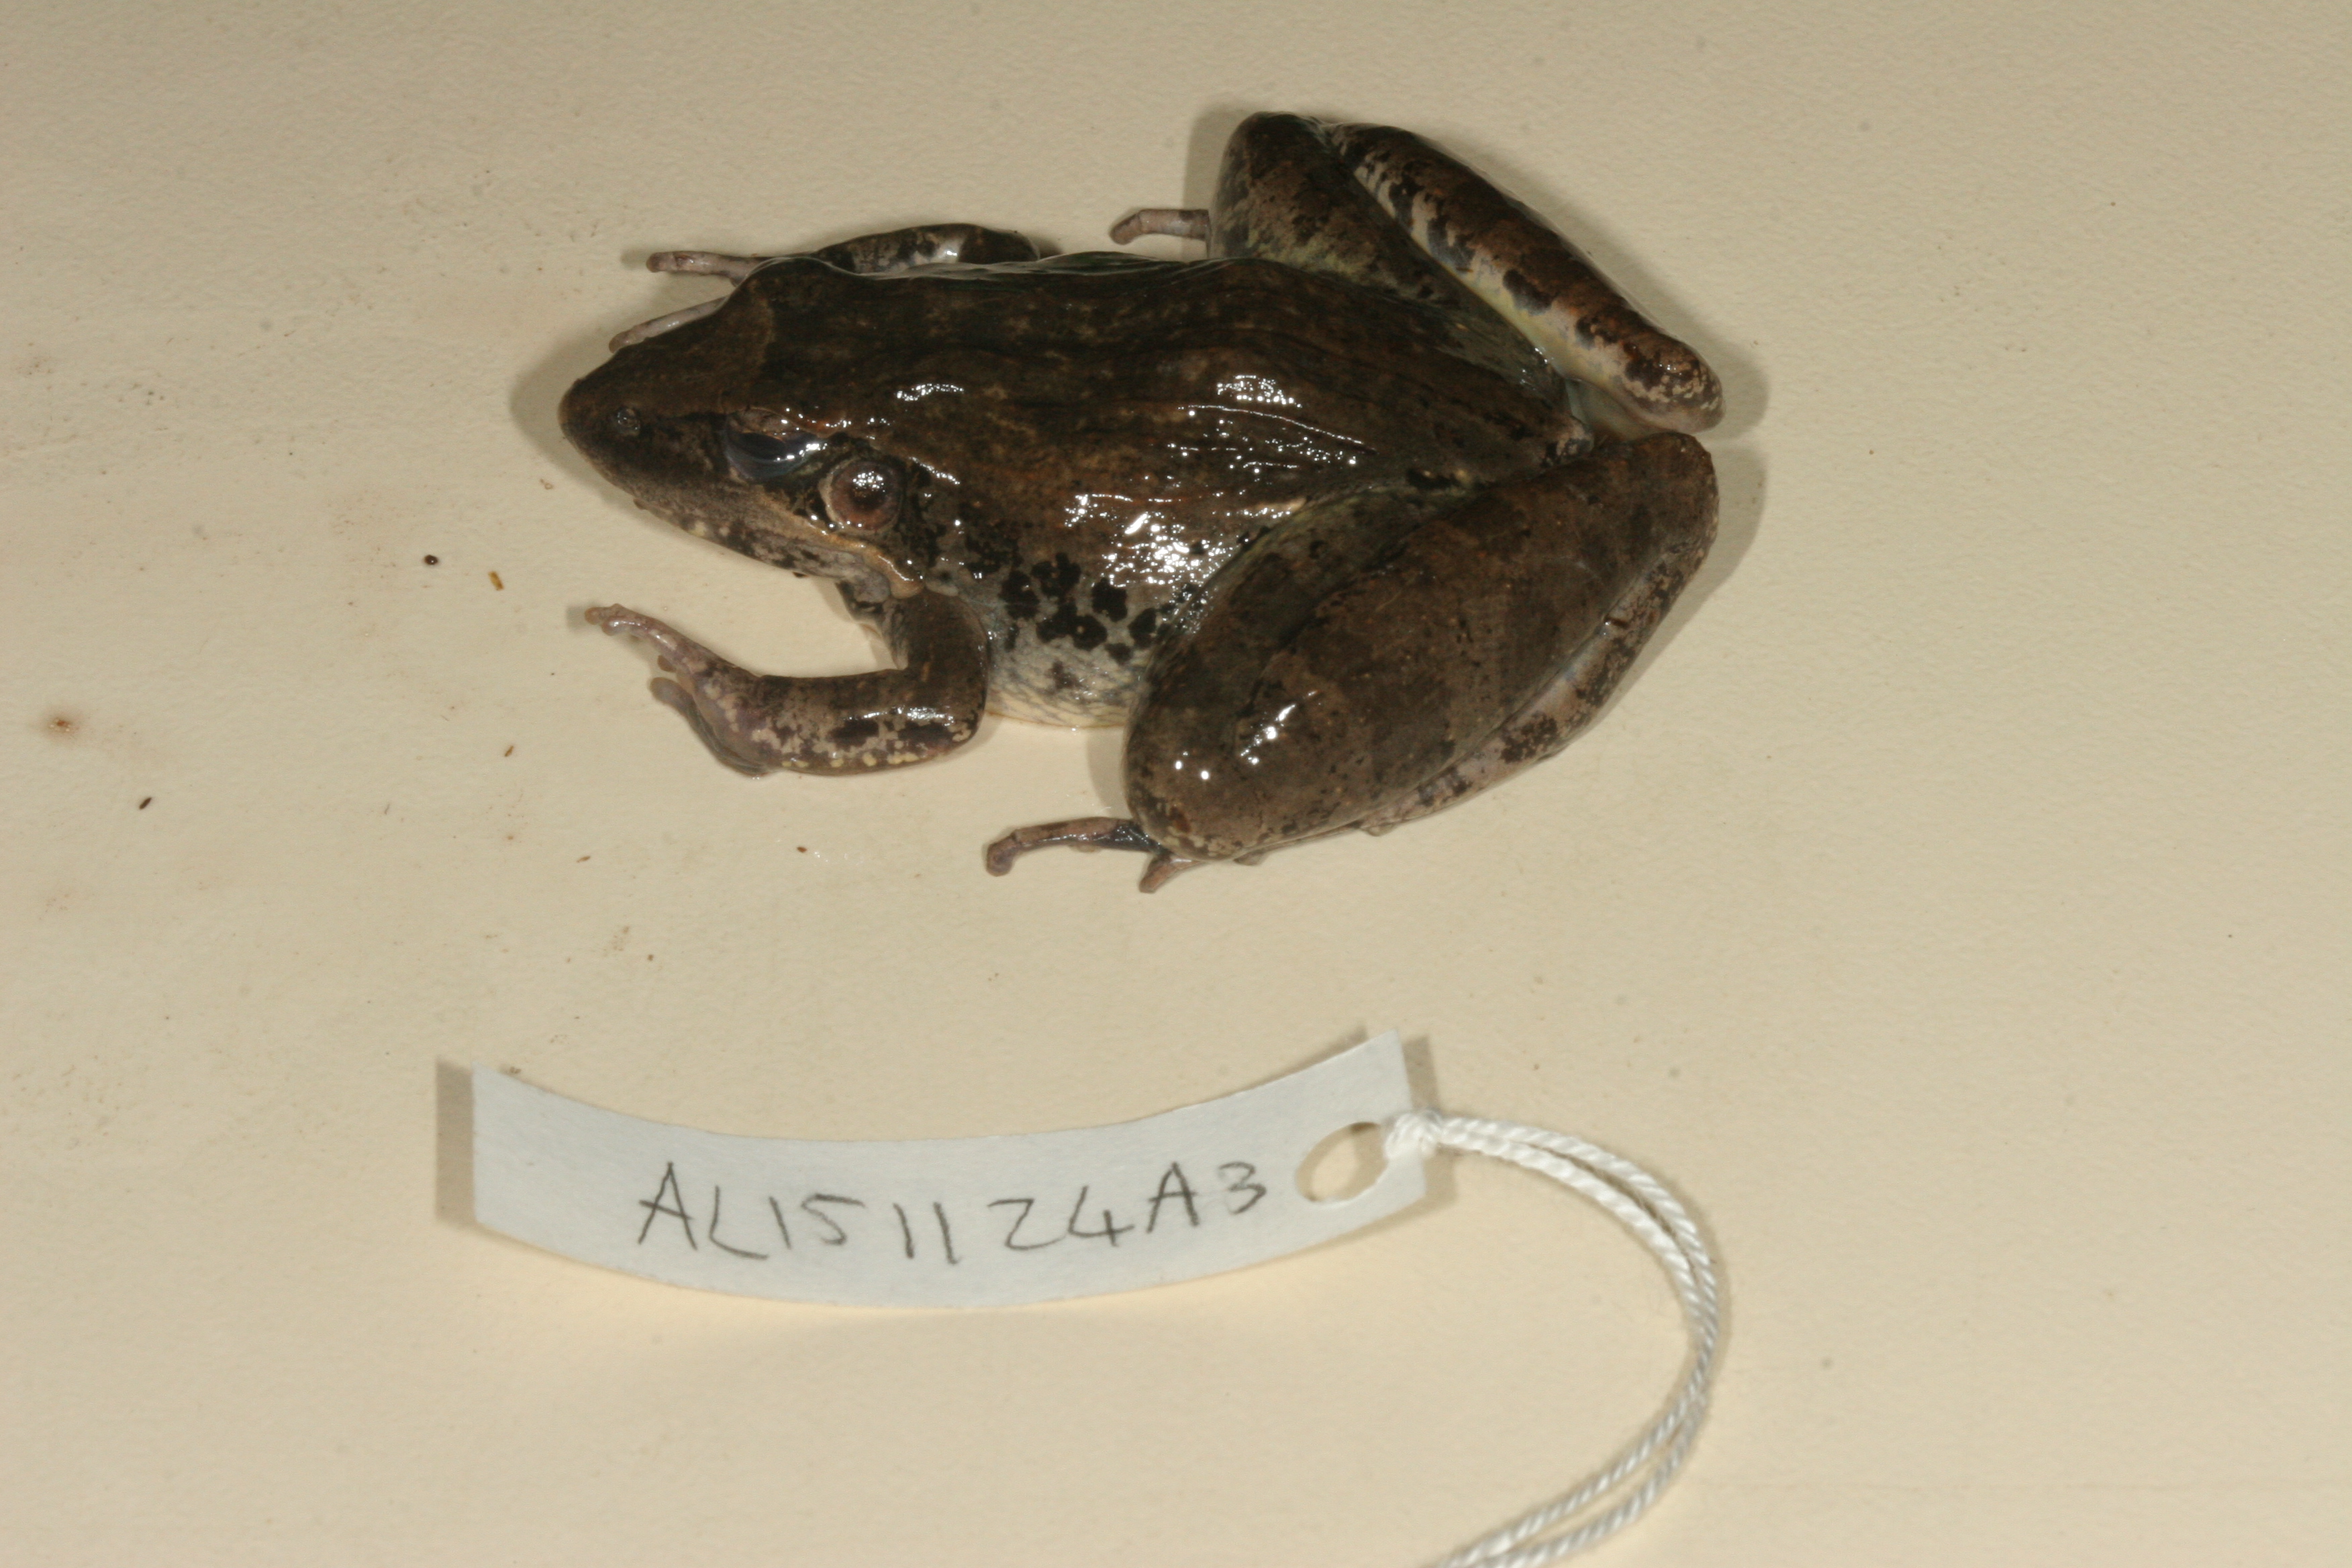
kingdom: Animalia
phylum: Chordata
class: Amphibia
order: Anura
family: Ptychadenidae
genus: Ptychadena
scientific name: Ptychadena anchietae
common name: Anchieta's ridged frog
